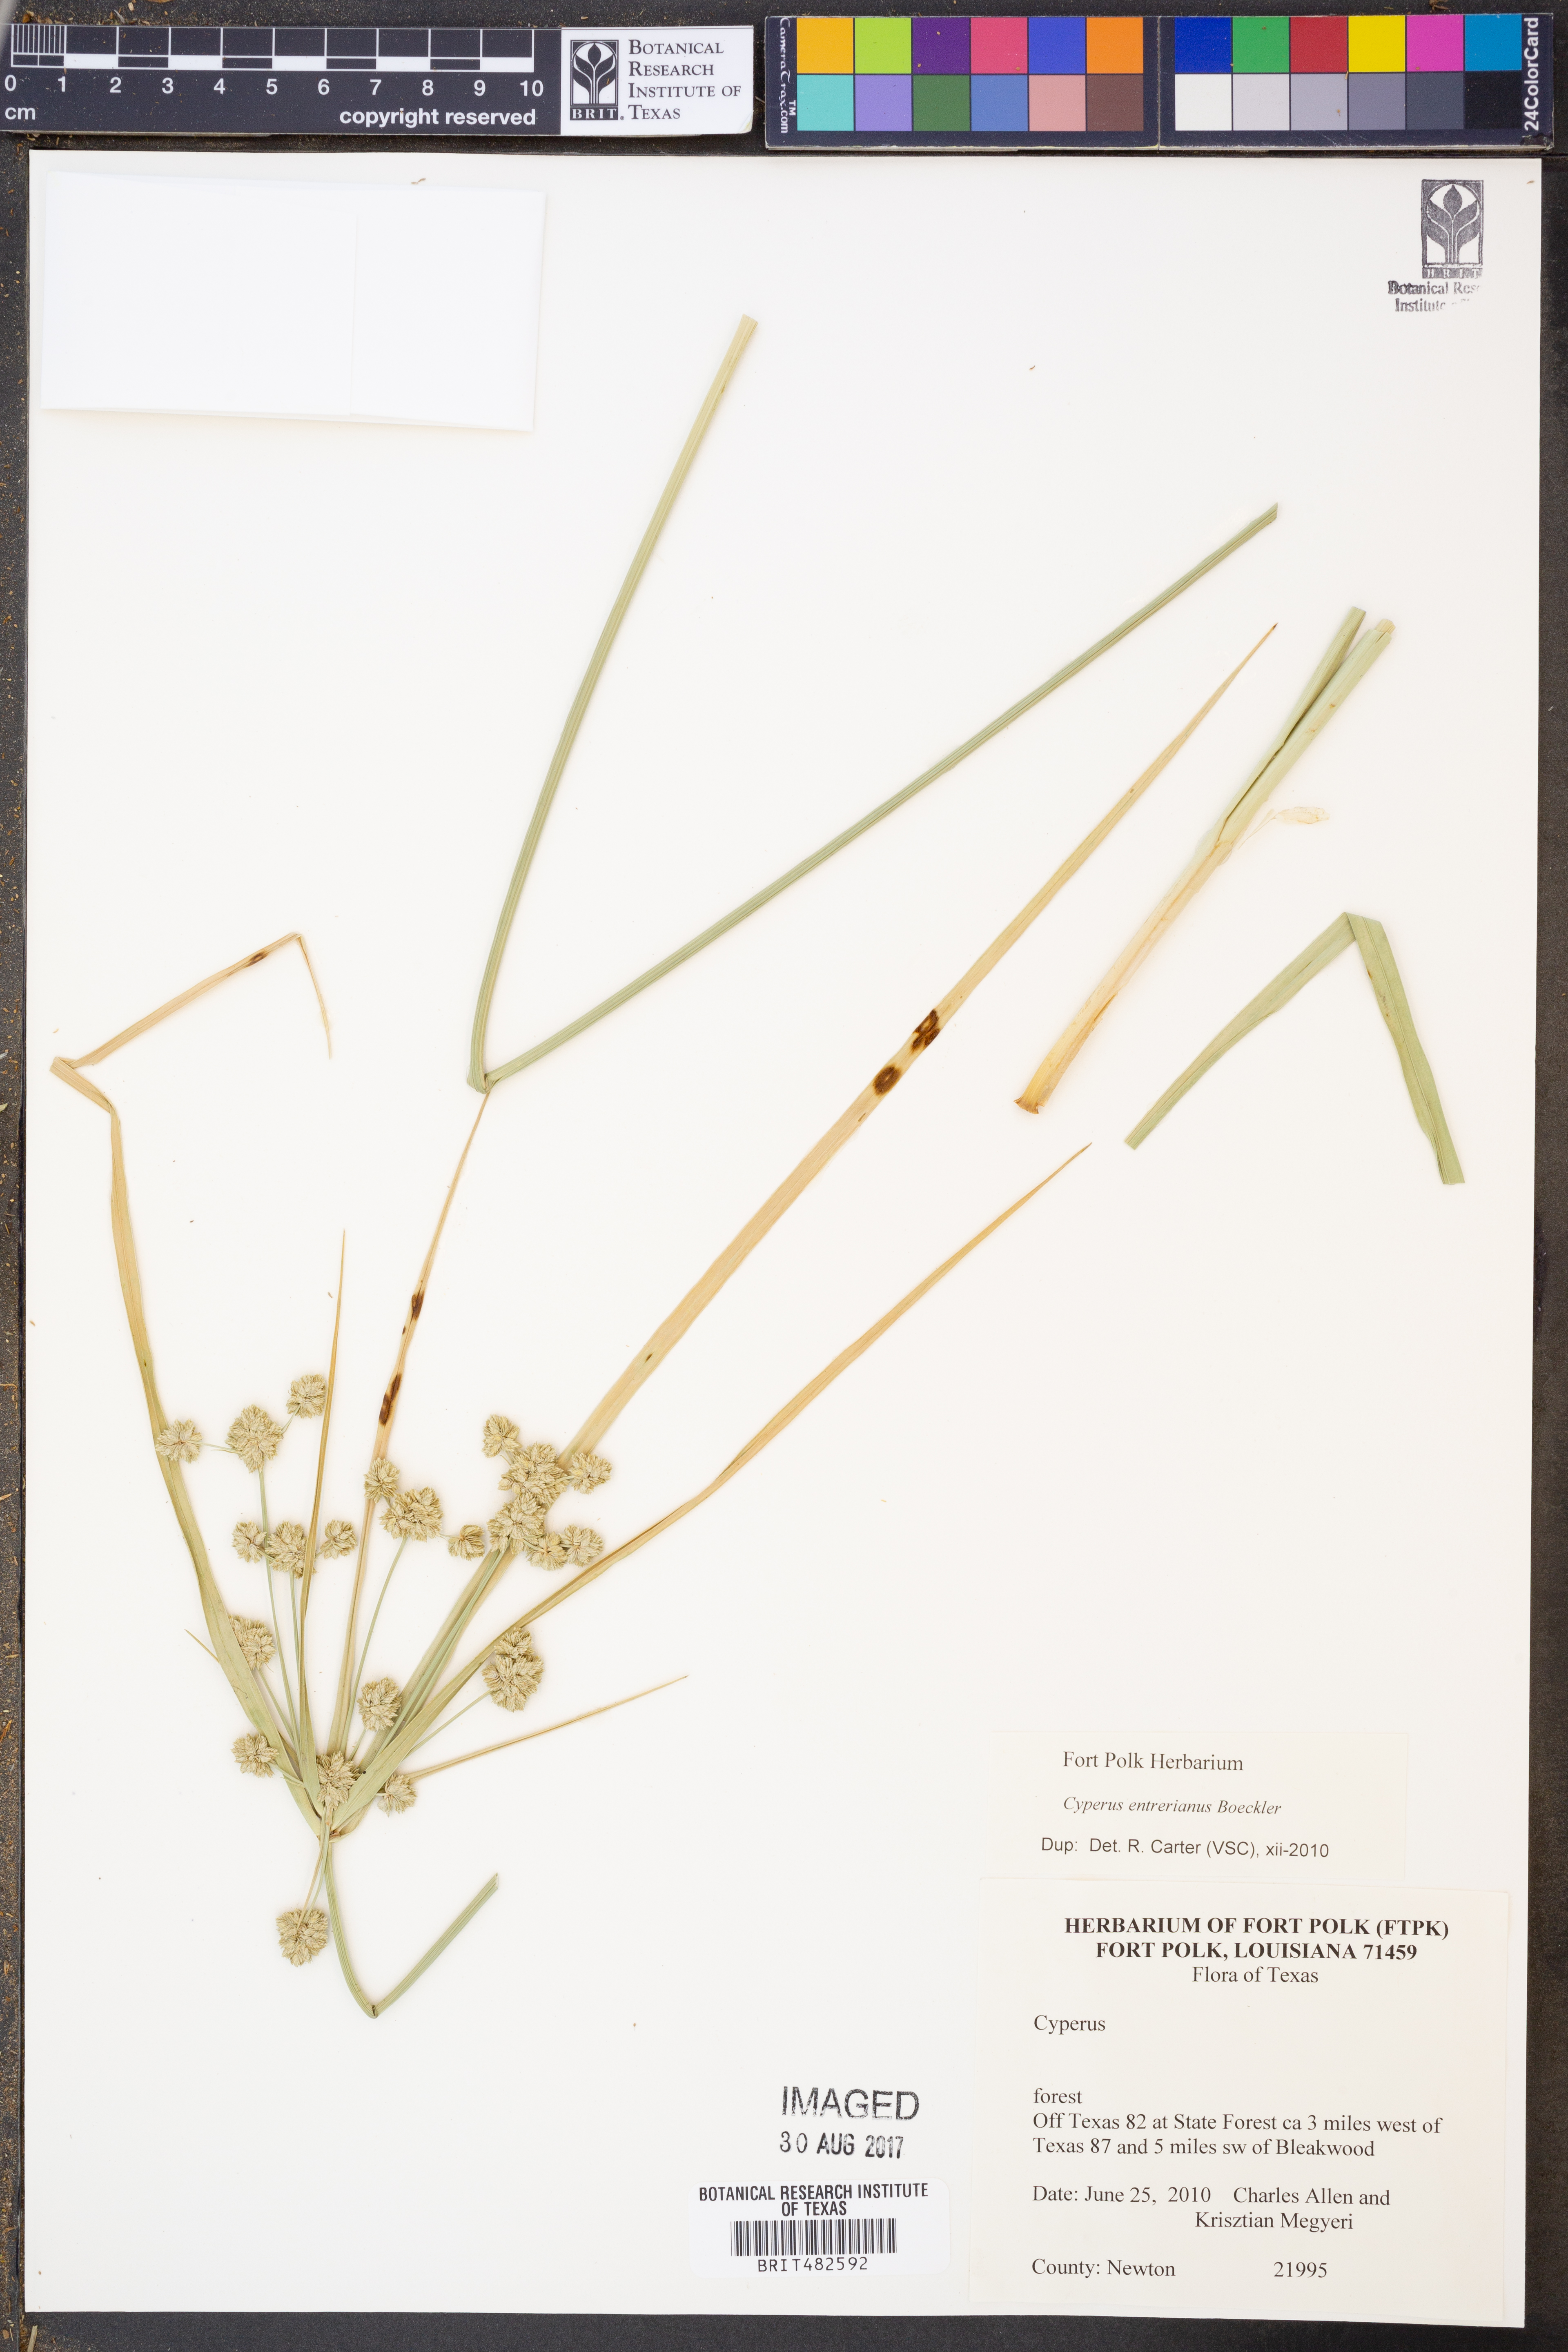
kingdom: Plantae
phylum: Tracheophyta
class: Liliopsida
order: Poales
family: Cyperaceae
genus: Cyperus
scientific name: Cyperus entrerianus
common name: Woodrush flatsedge
